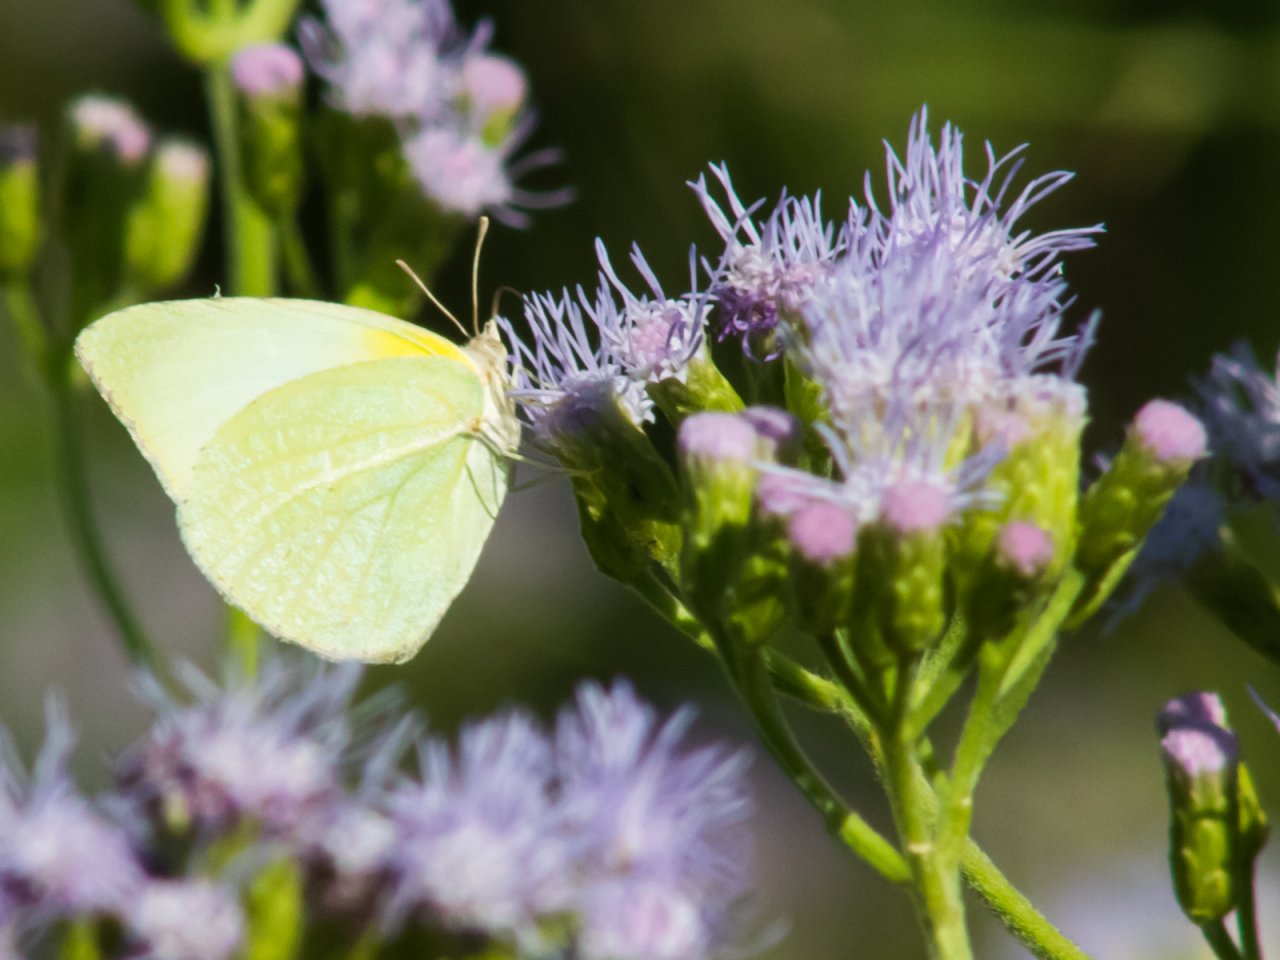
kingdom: Animalia
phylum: Arthropoda
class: Insecta
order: Lepidoptera
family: Pieridae
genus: Kricogonia
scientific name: Kricogonia lyside
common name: Lyside Sulphur
